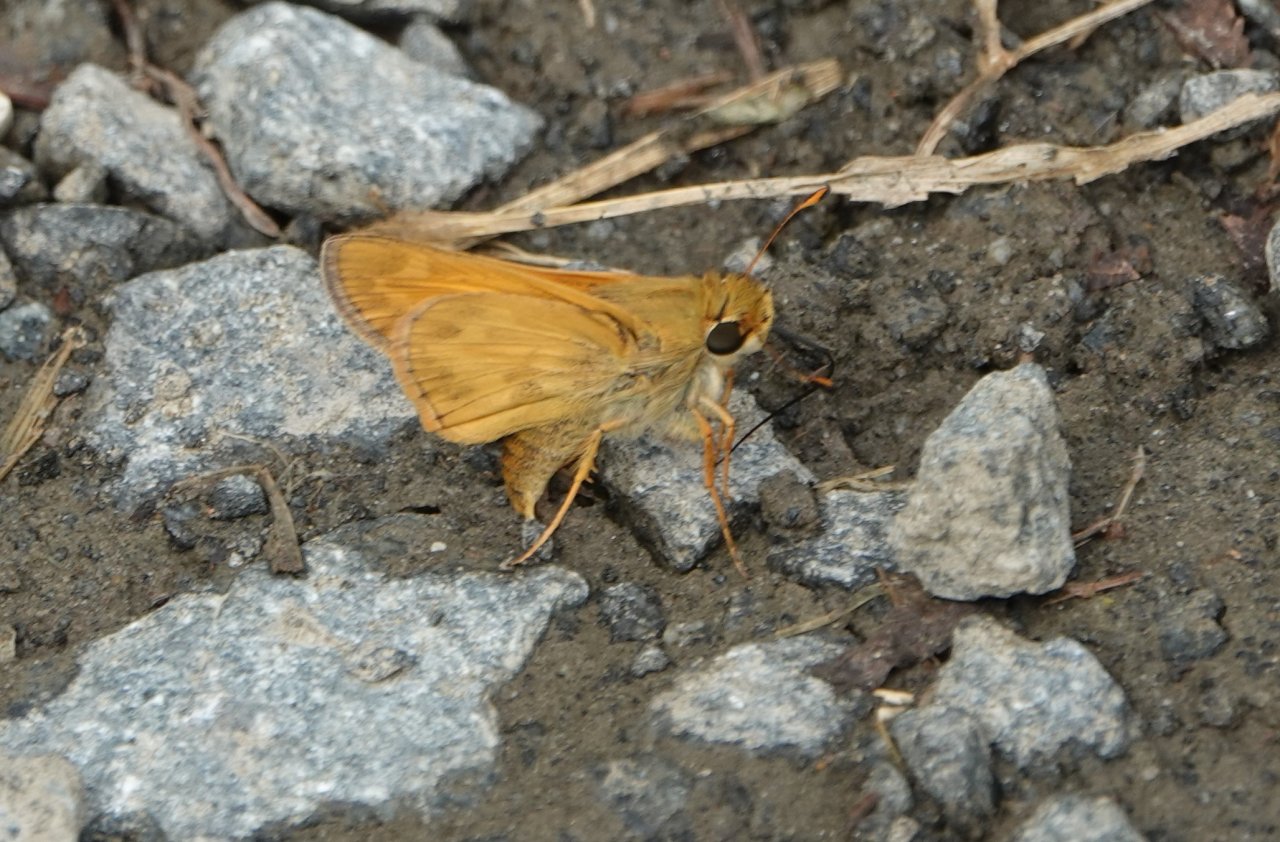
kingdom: Animalia
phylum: Arthropoda
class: Insecta
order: Lepidoptera
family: Hesperiidae
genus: Atalopedes
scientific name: Atalopedes campestris
